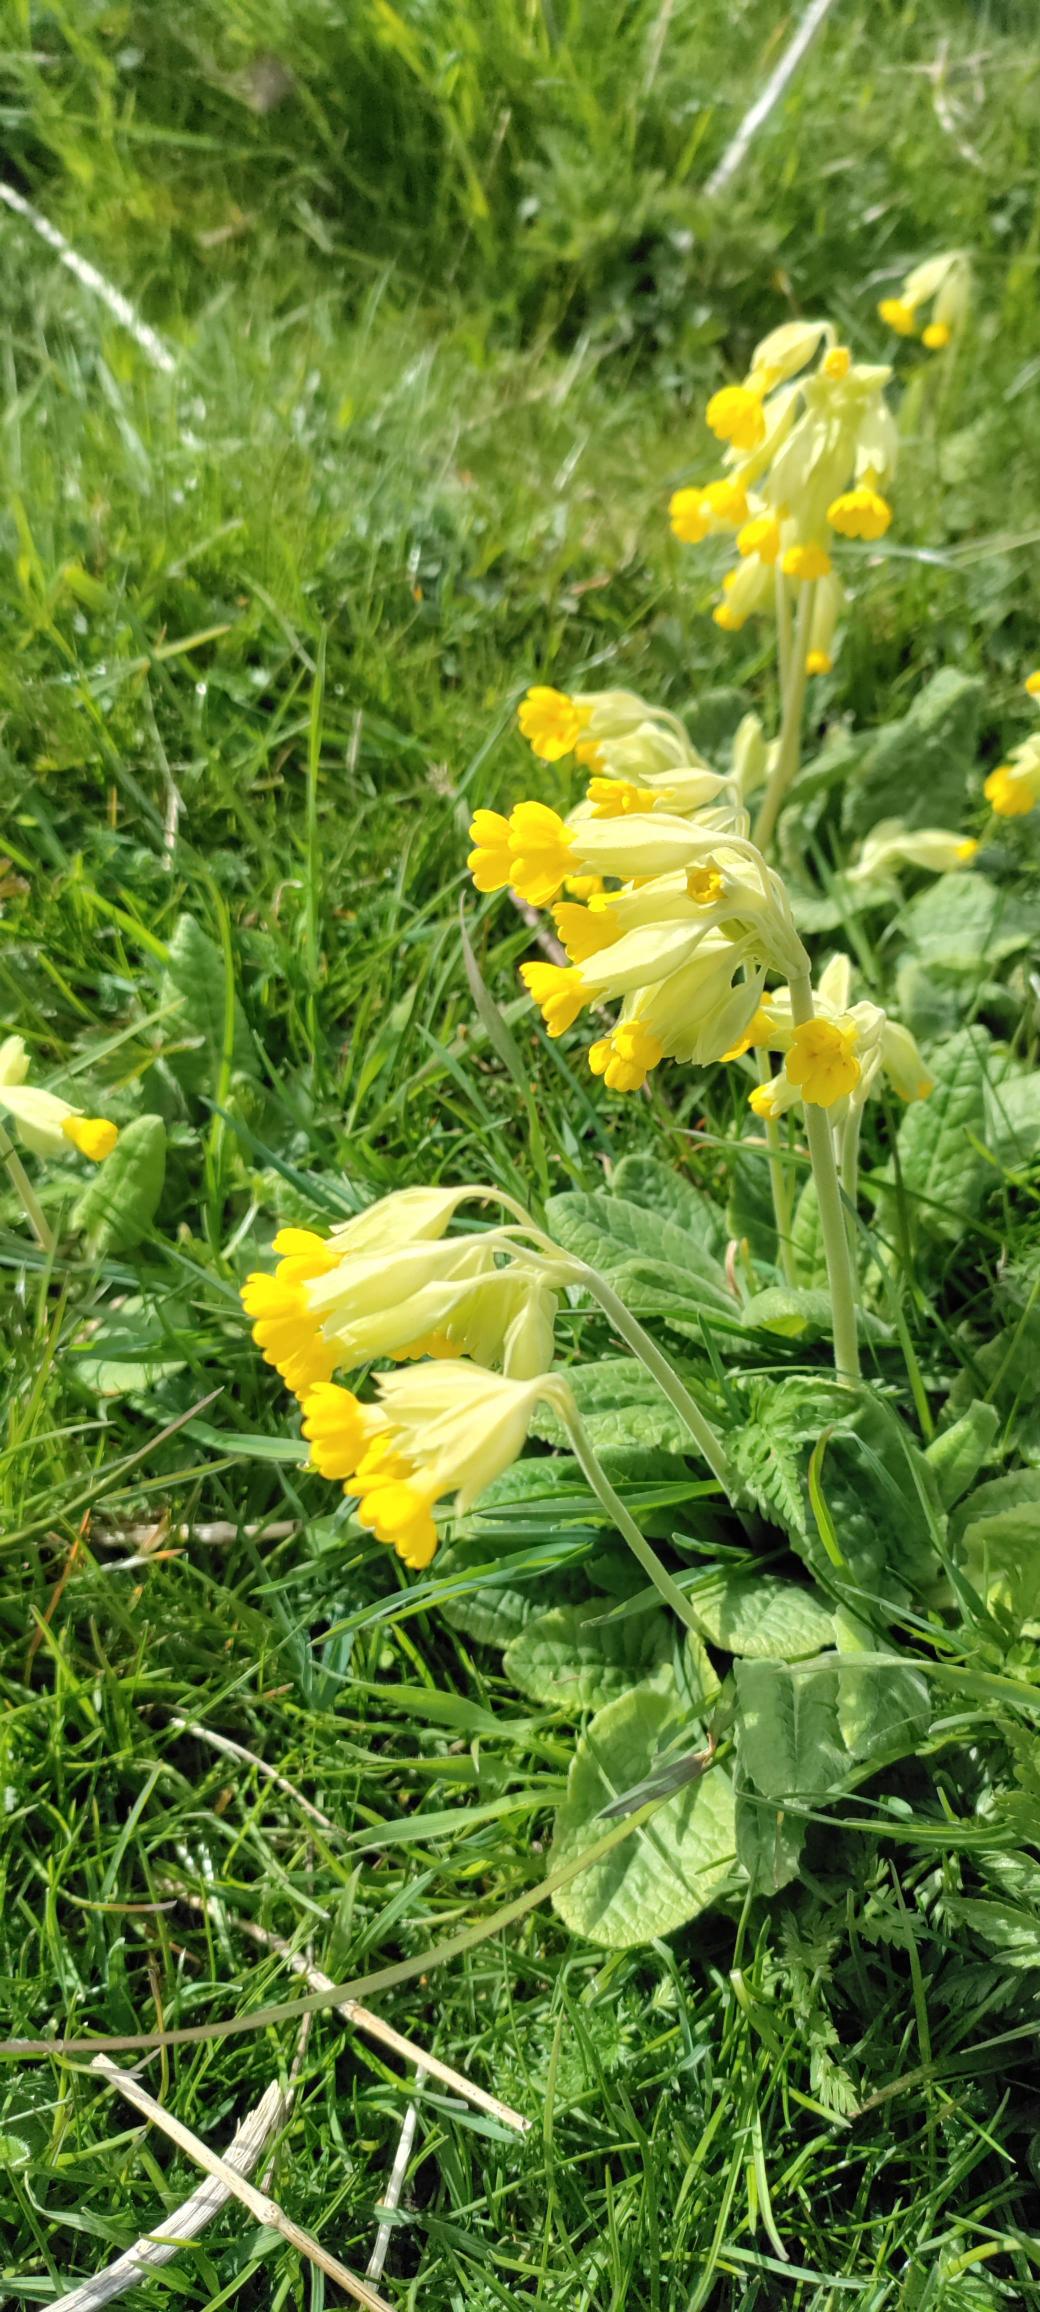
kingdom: Plantae
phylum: Tracheophyta
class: Magnoliopsida
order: Ericales
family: Primulaceae
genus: Primula
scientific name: Primula veris
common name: Hulkravet kodriver
